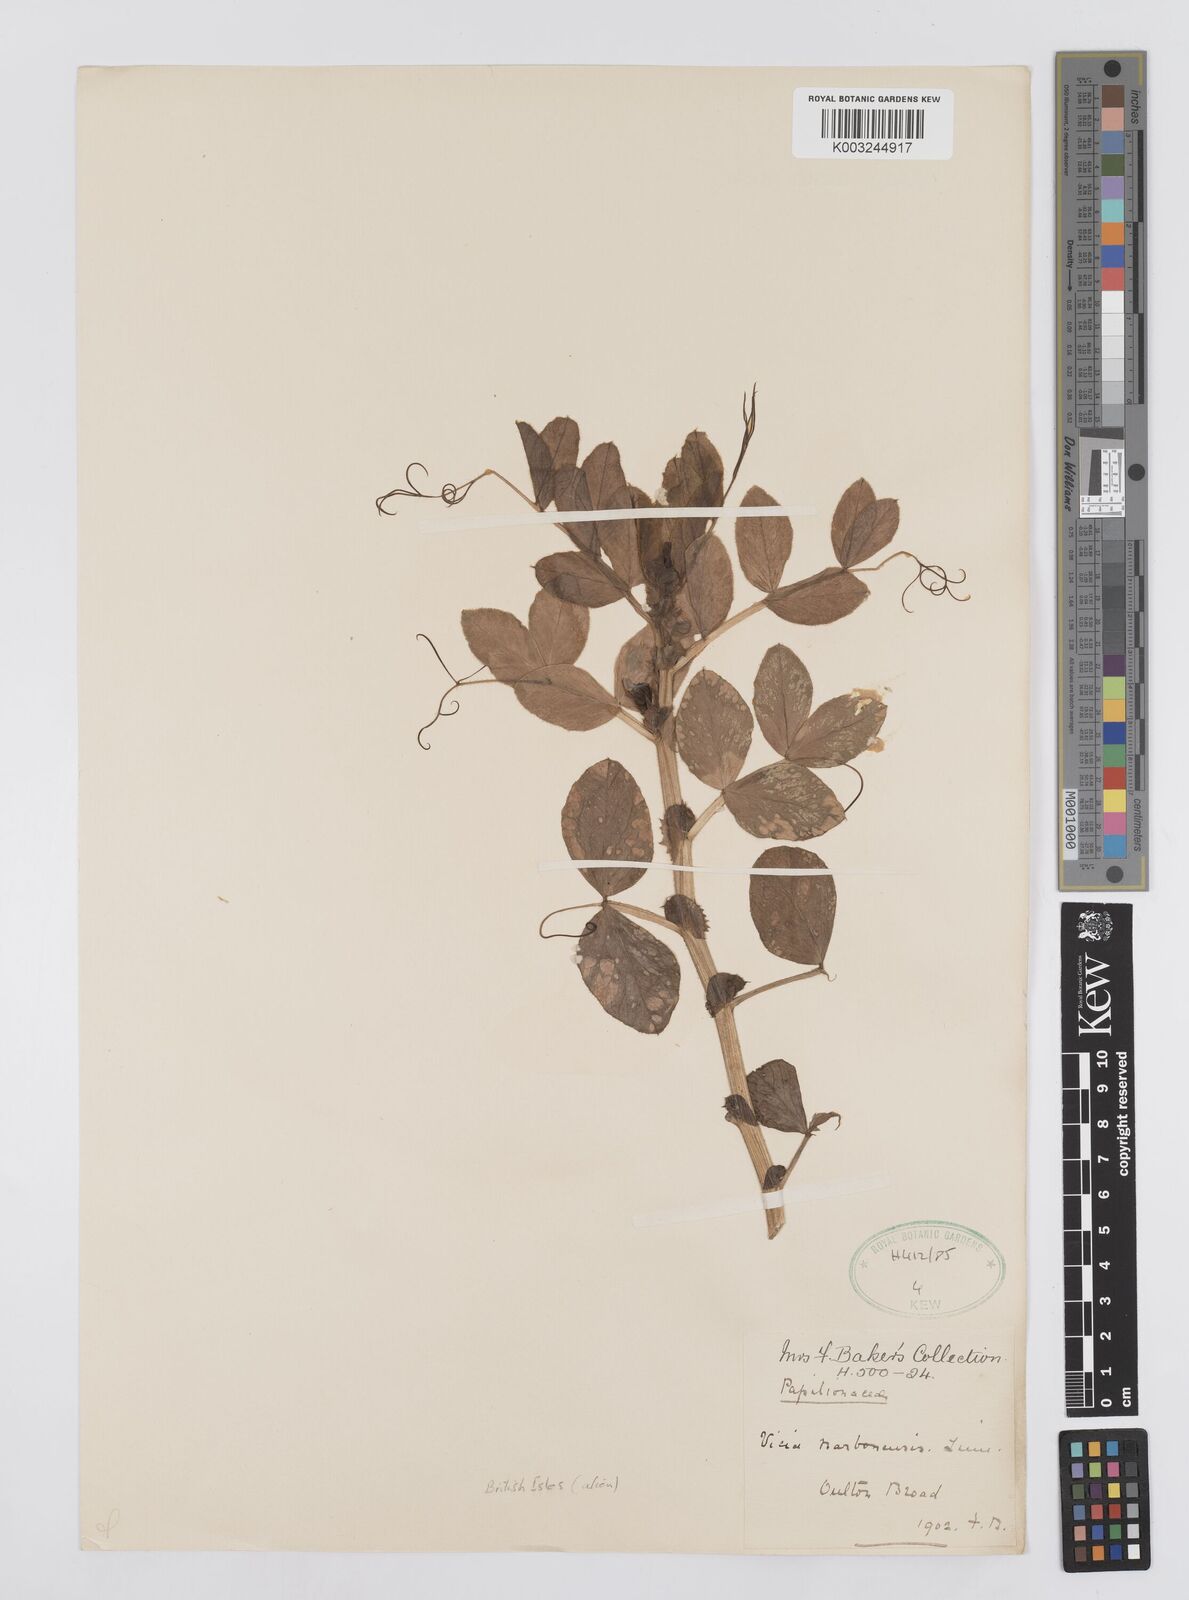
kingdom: Plantae
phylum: Tracheophyta
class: Magnoliopsida
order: Fabales
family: Fabaceae
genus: Vicia
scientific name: Vicia narbonensis
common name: Narbonne vetch
